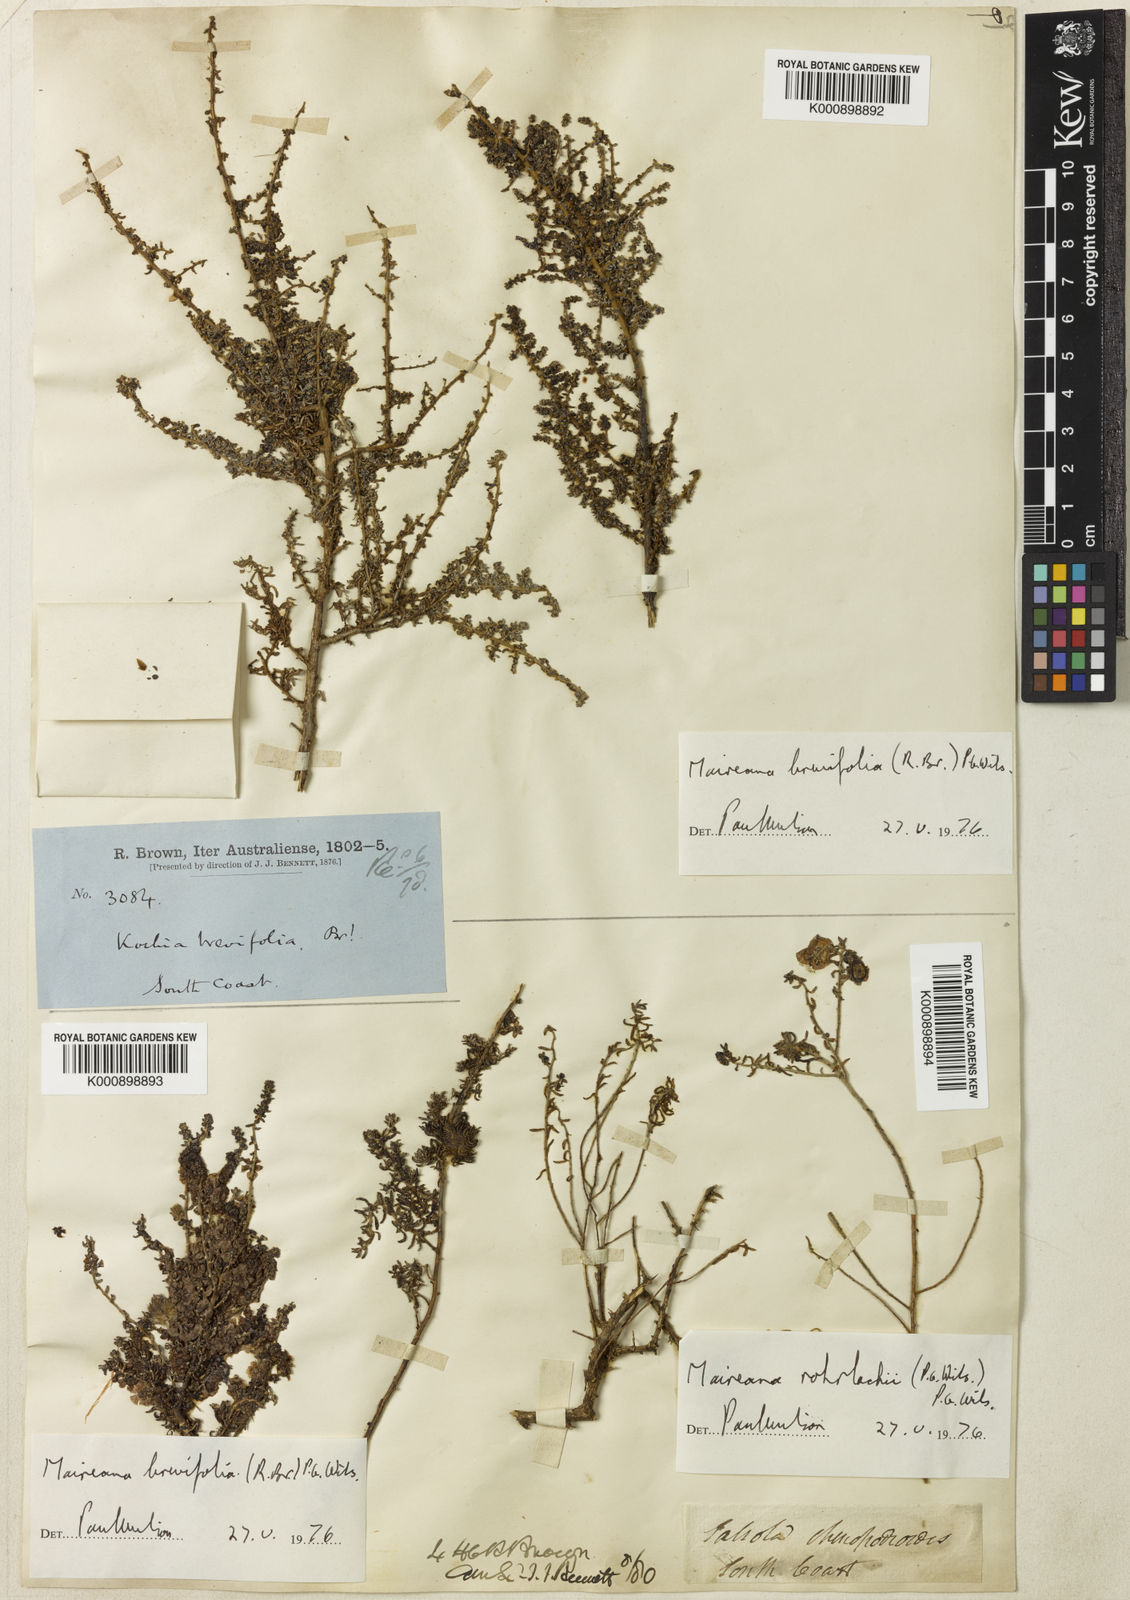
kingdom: Plantae
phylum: Tracheophyta
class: Magnoliopsida
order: Caryophyllales
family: Amaranthaceae
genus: Maireana
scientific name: Maireana brevifolia
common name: Eastern cottonbush
